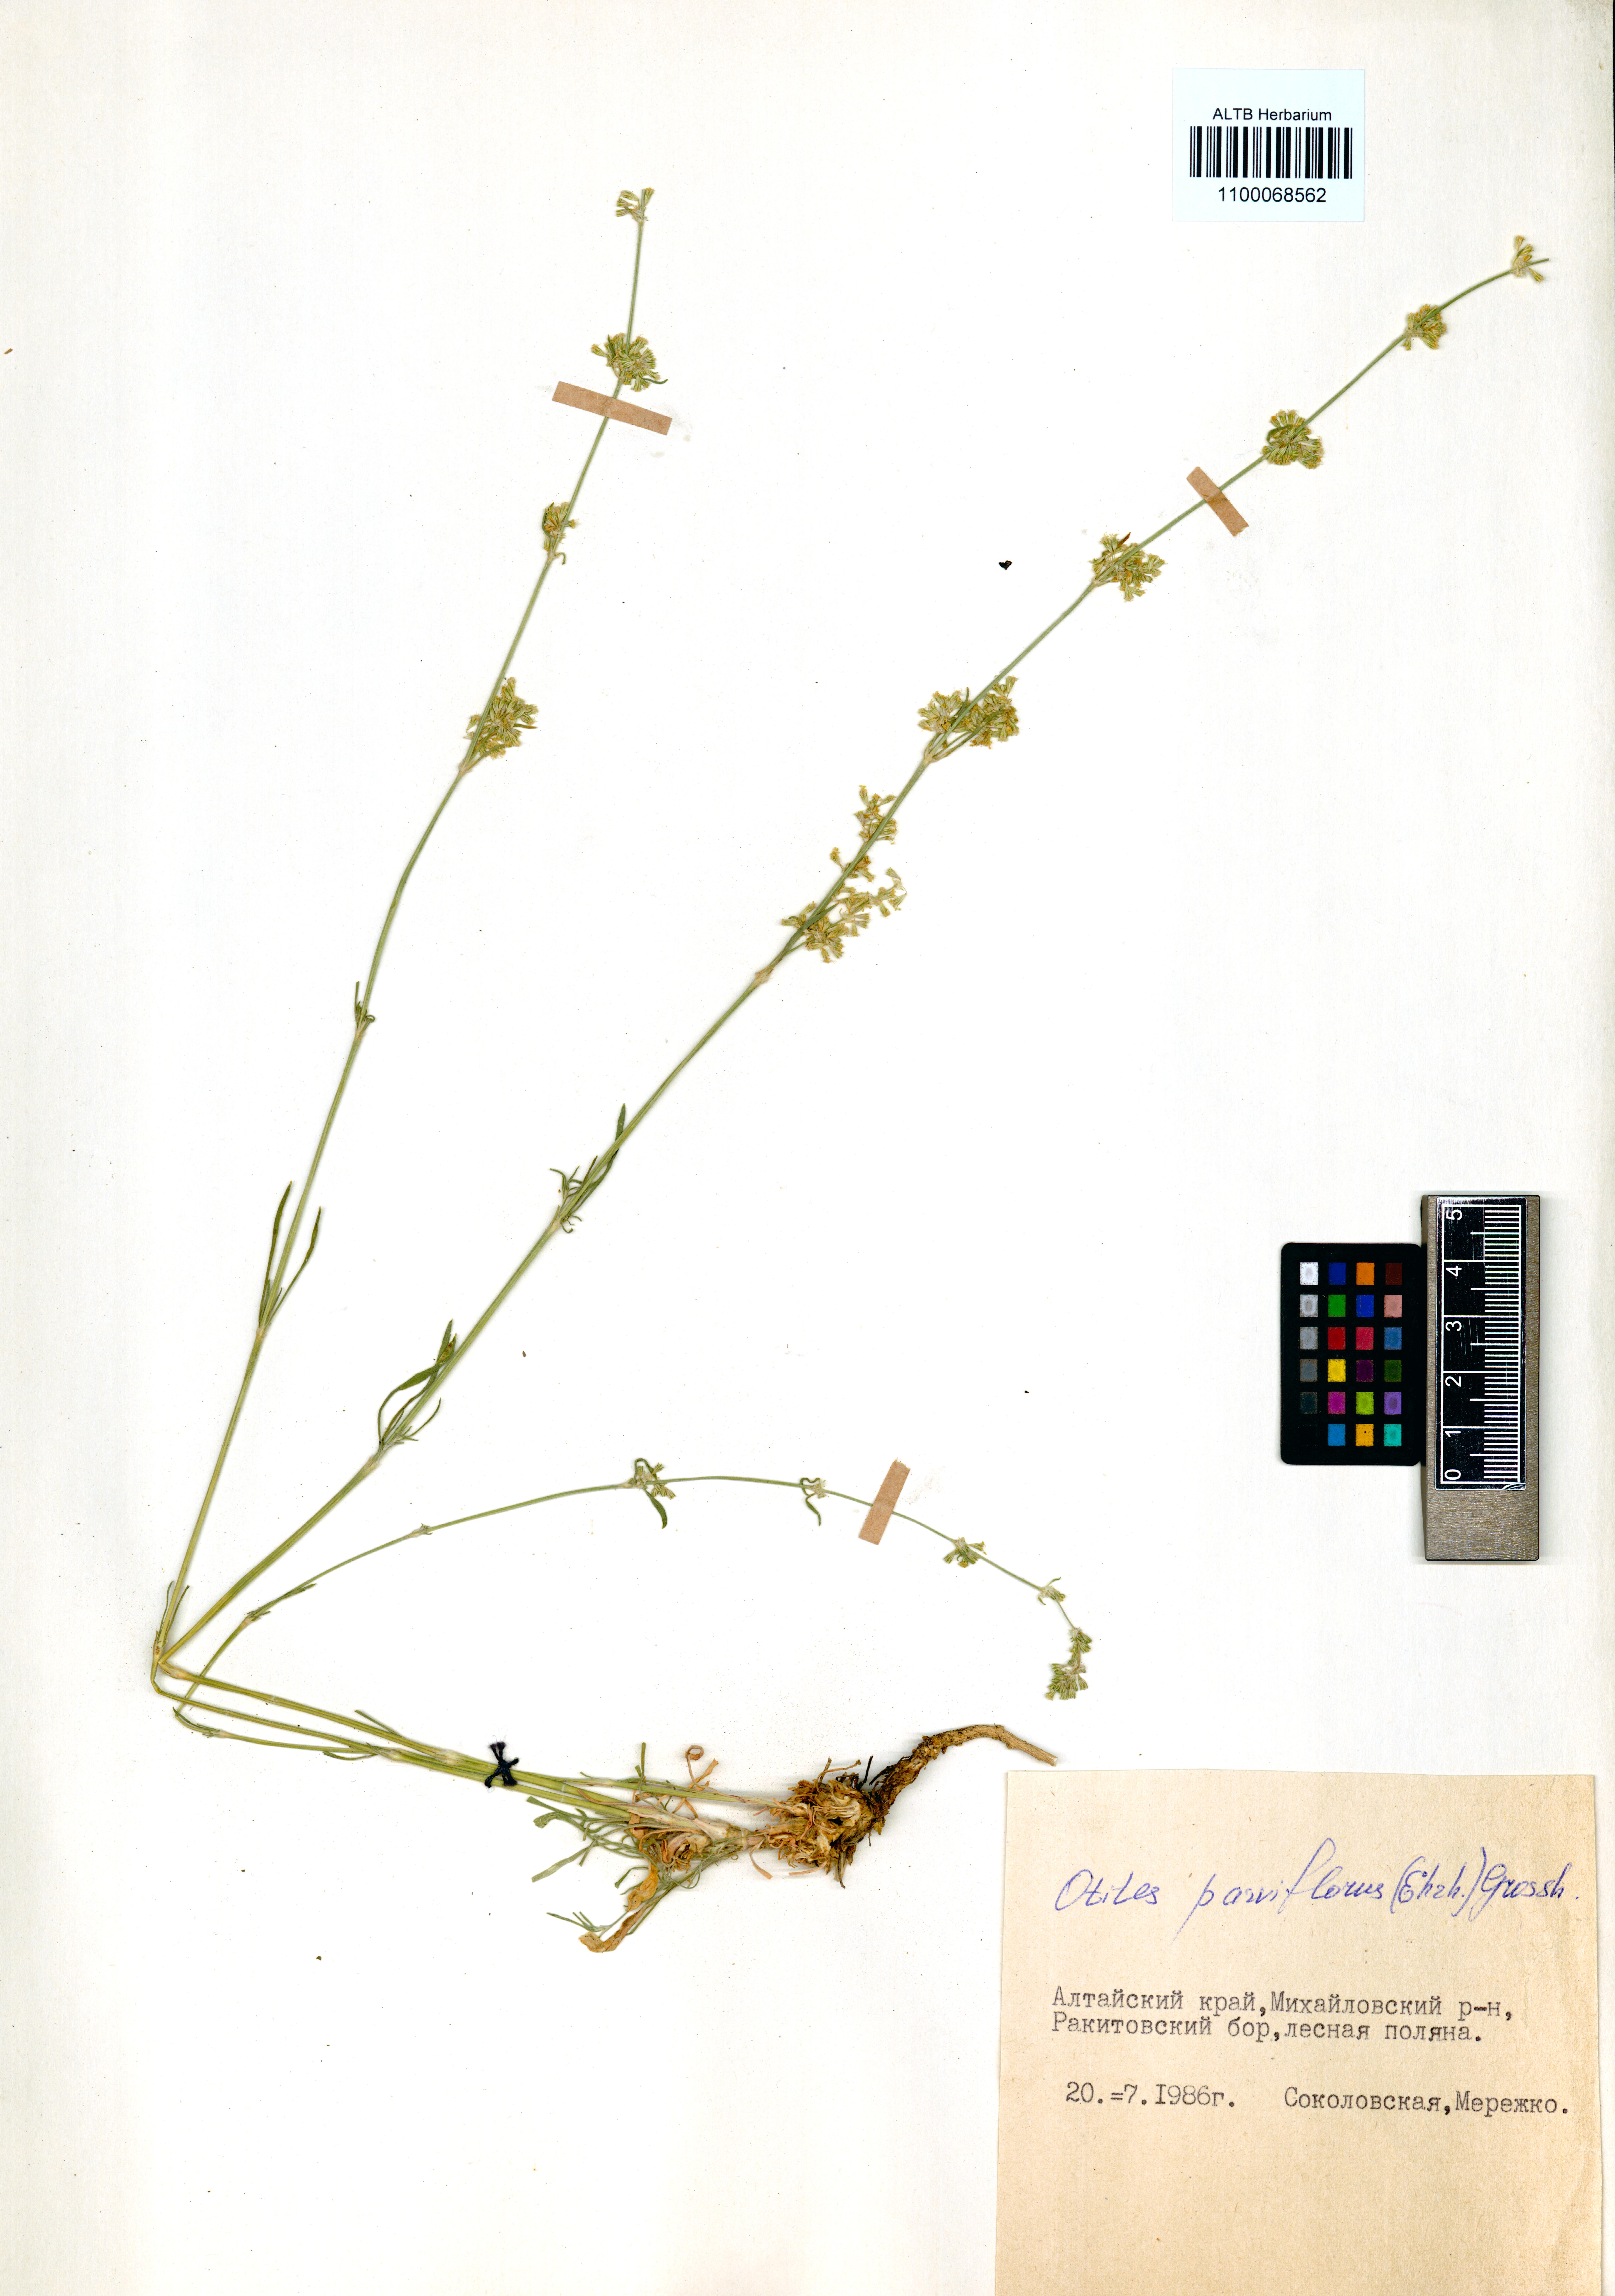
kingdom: Plantae
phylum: Tracheophyta
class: Magnoliopsida
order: Caryophyllales
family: Caryophyllaceae
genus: Silene
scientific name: Silene borysthenica
